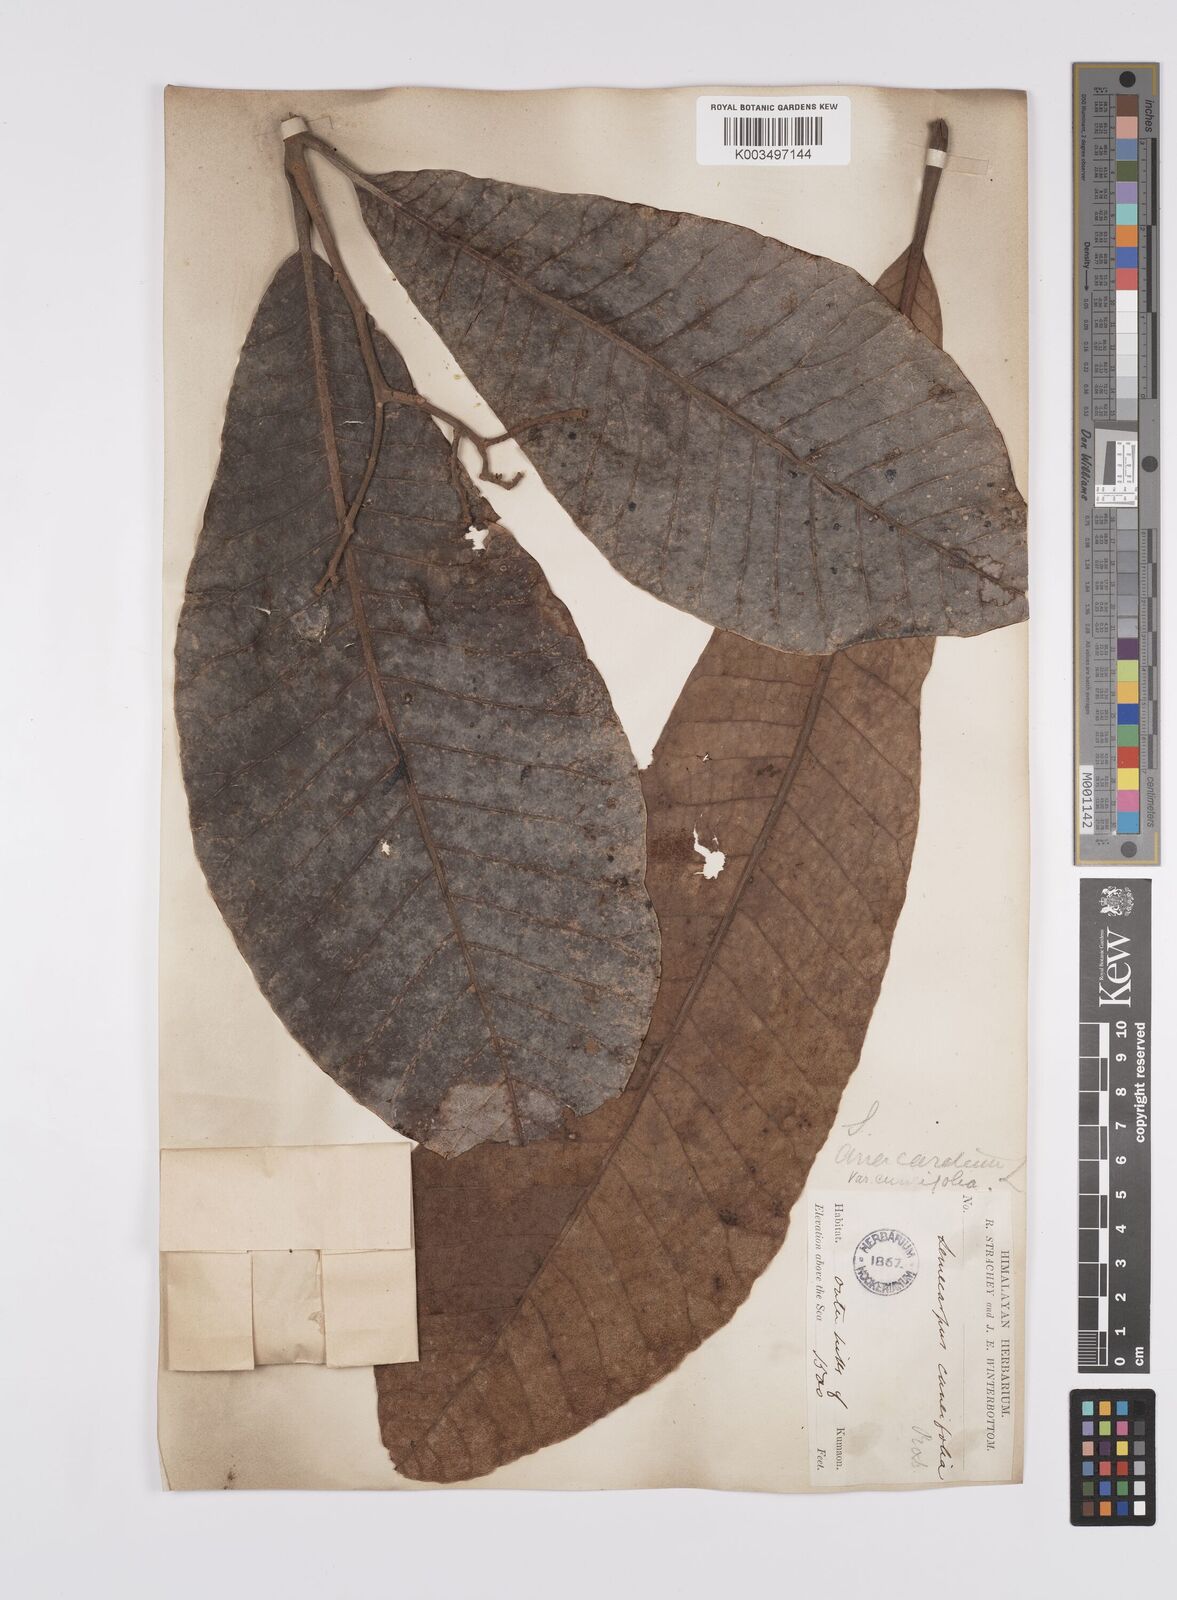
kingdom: Plantae
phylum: Tracheophyta
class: Magnoliopsida
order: Sapindales
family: Anacardiaceae
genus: Semecarpus
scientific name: Semecarpus
